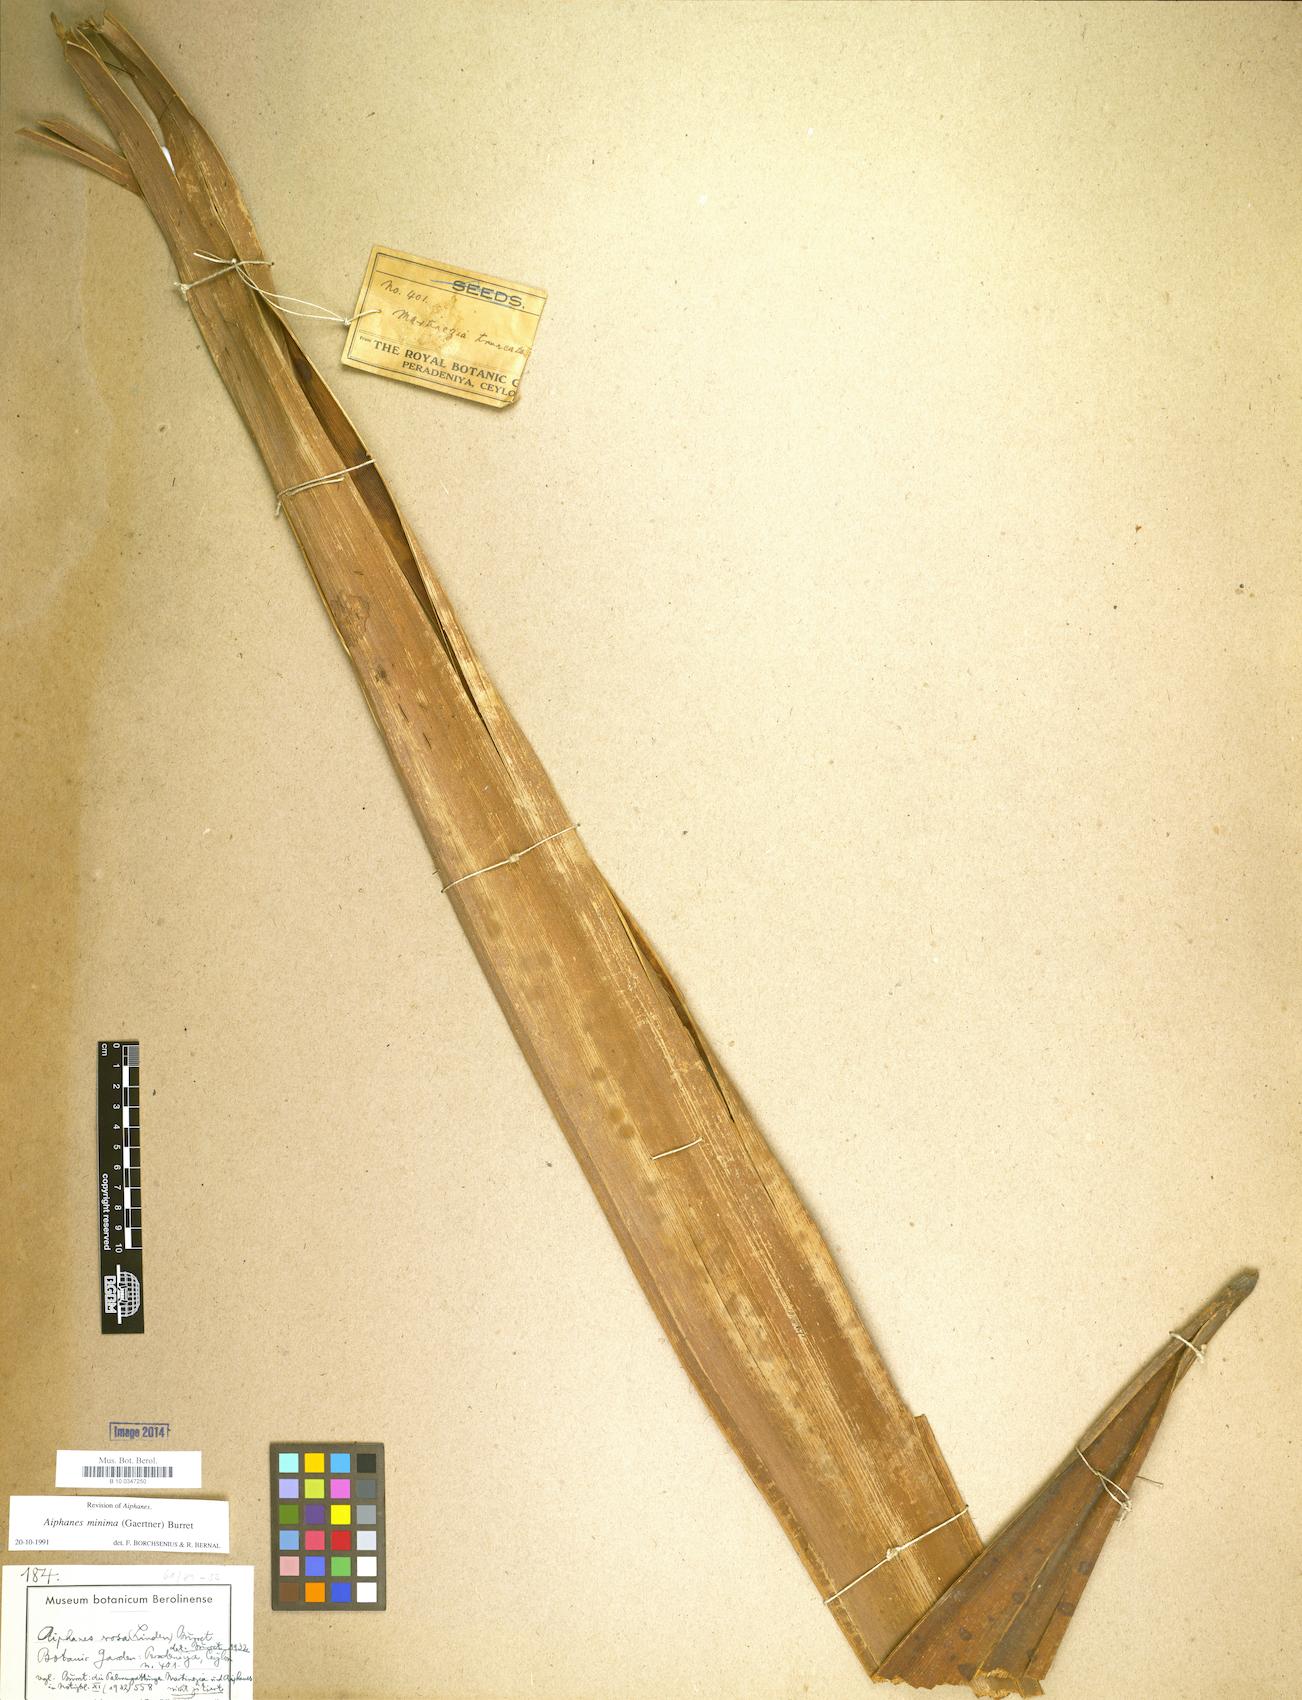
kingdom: Plantae
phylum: Tracheophyta
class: Liliopsida
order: Arecales
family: Arecaceae
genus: Aiphanes
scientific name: Aiphanes minima
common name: Grigri
